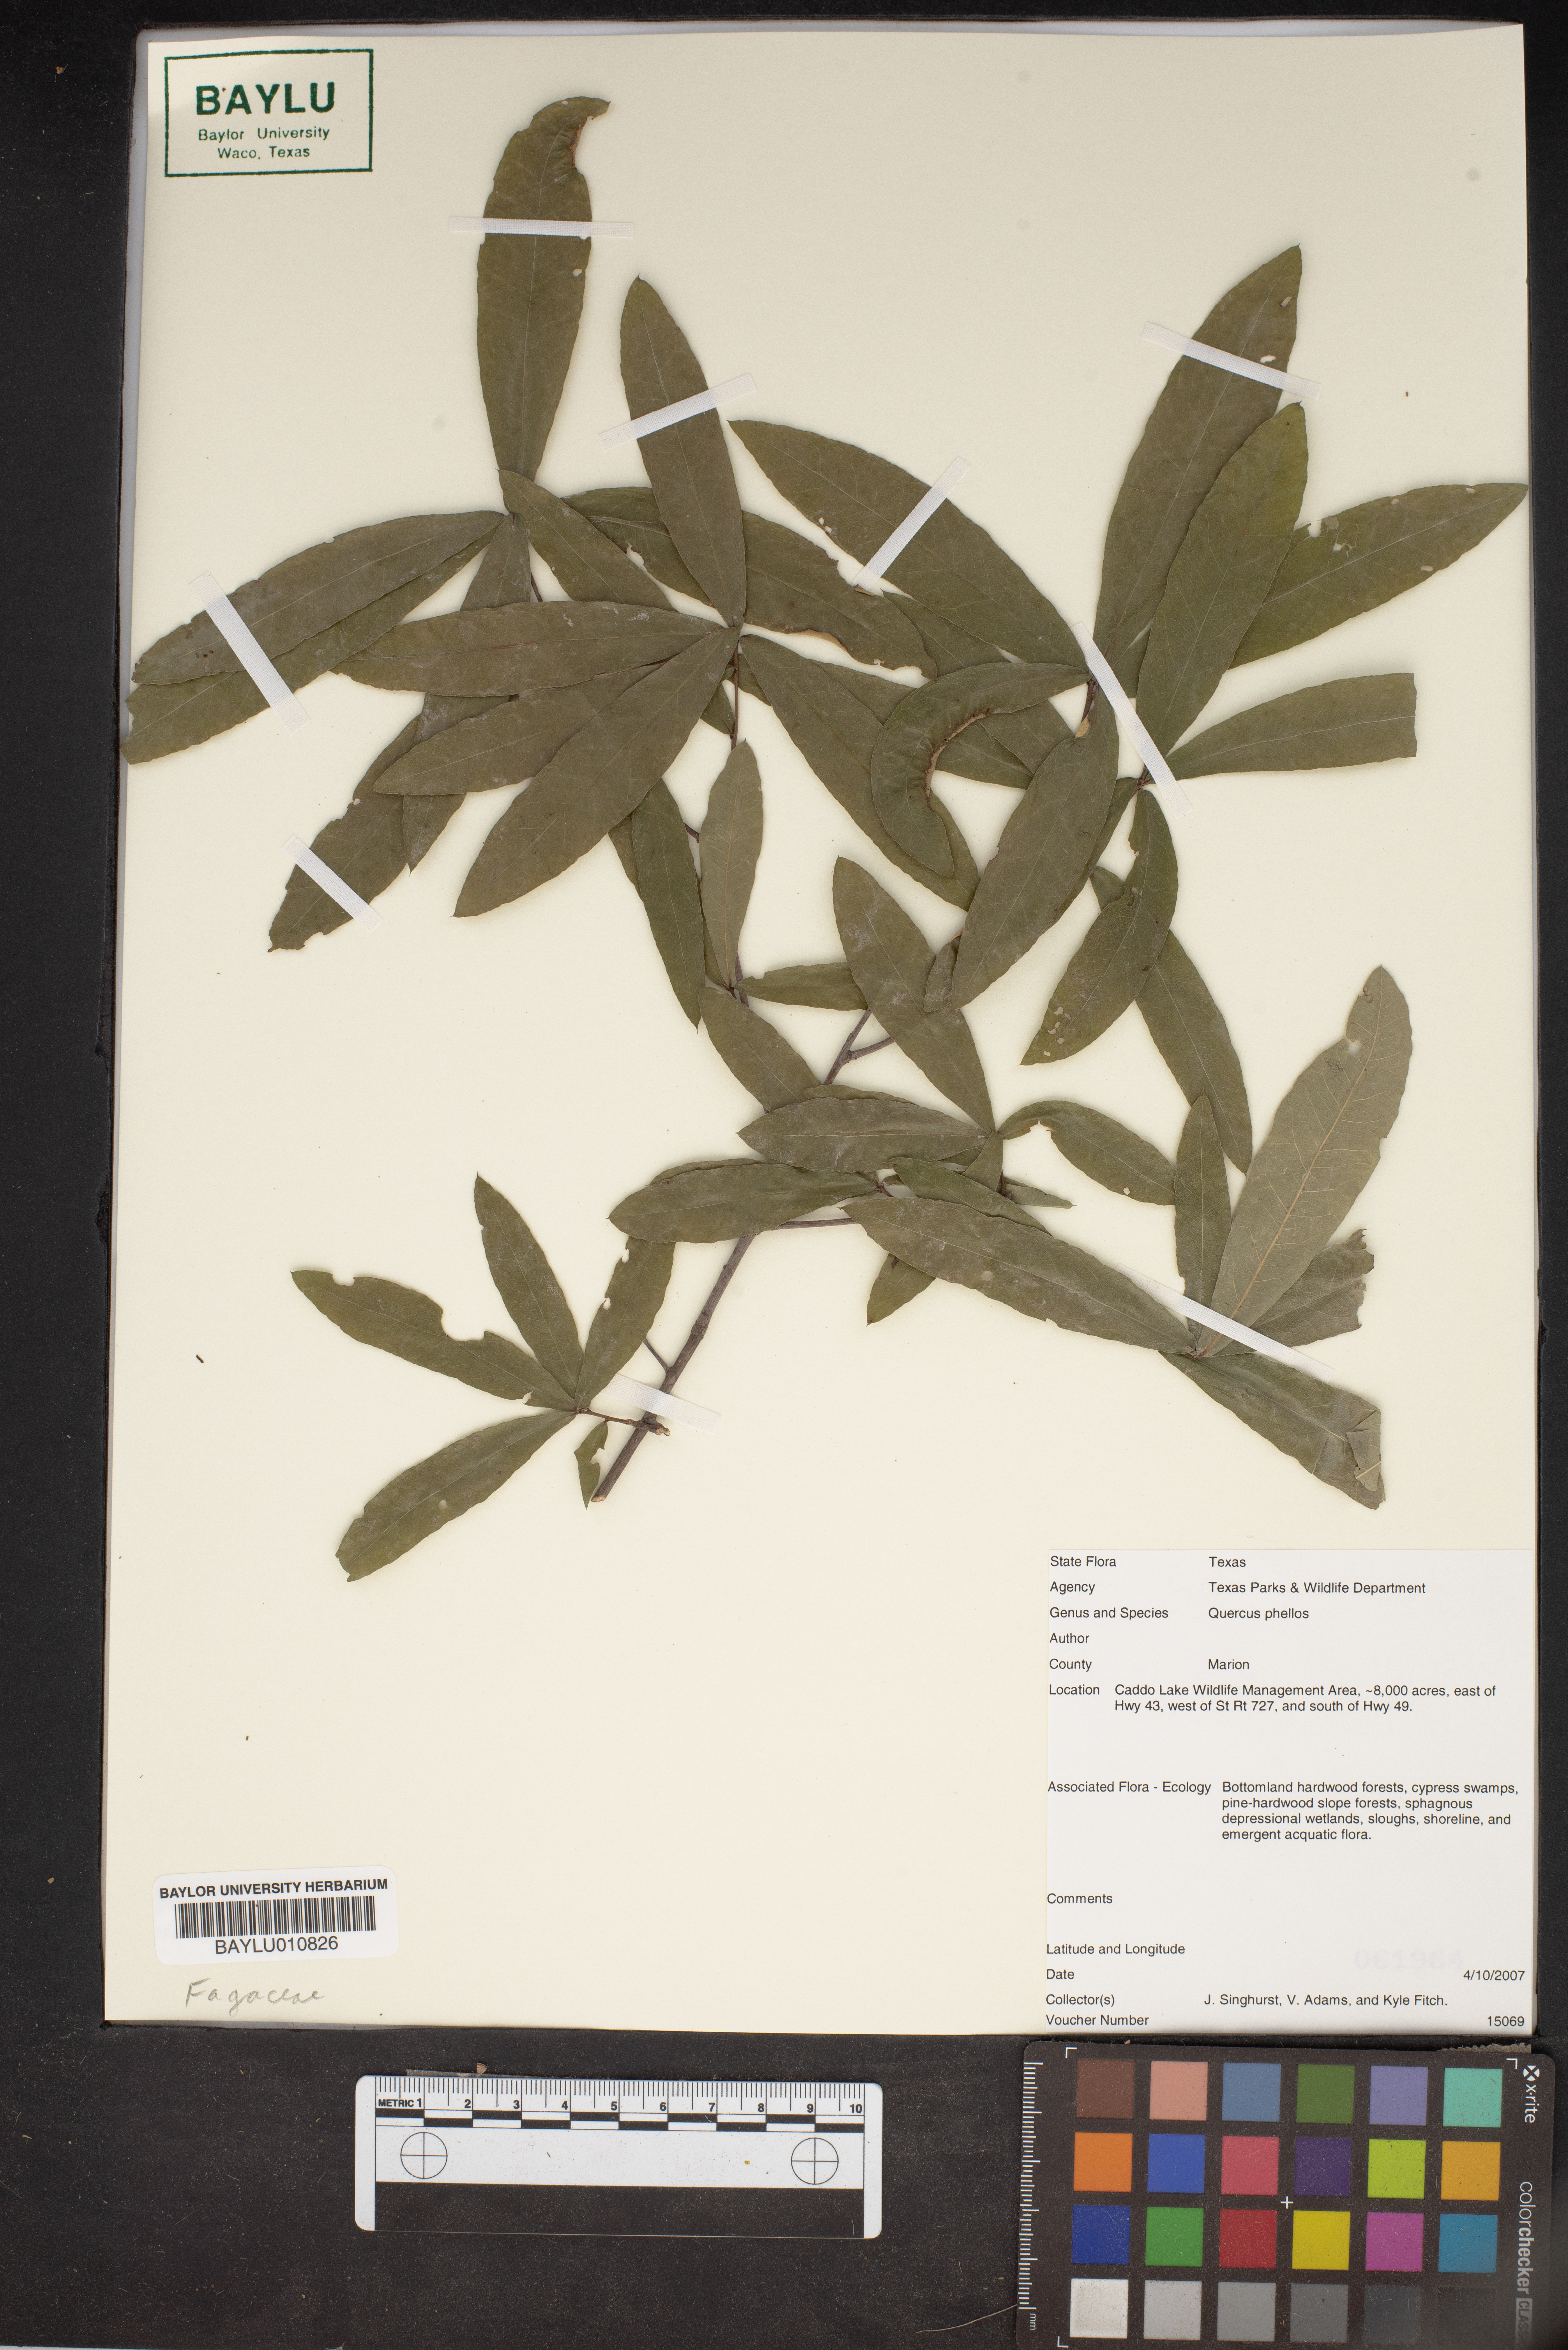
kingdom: Plantae
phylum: Tracheophyta
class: Magnoliopsida
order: Fagales
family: Fagaceae
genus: Quercus
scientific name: Quercus phellos
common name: Willow oak
